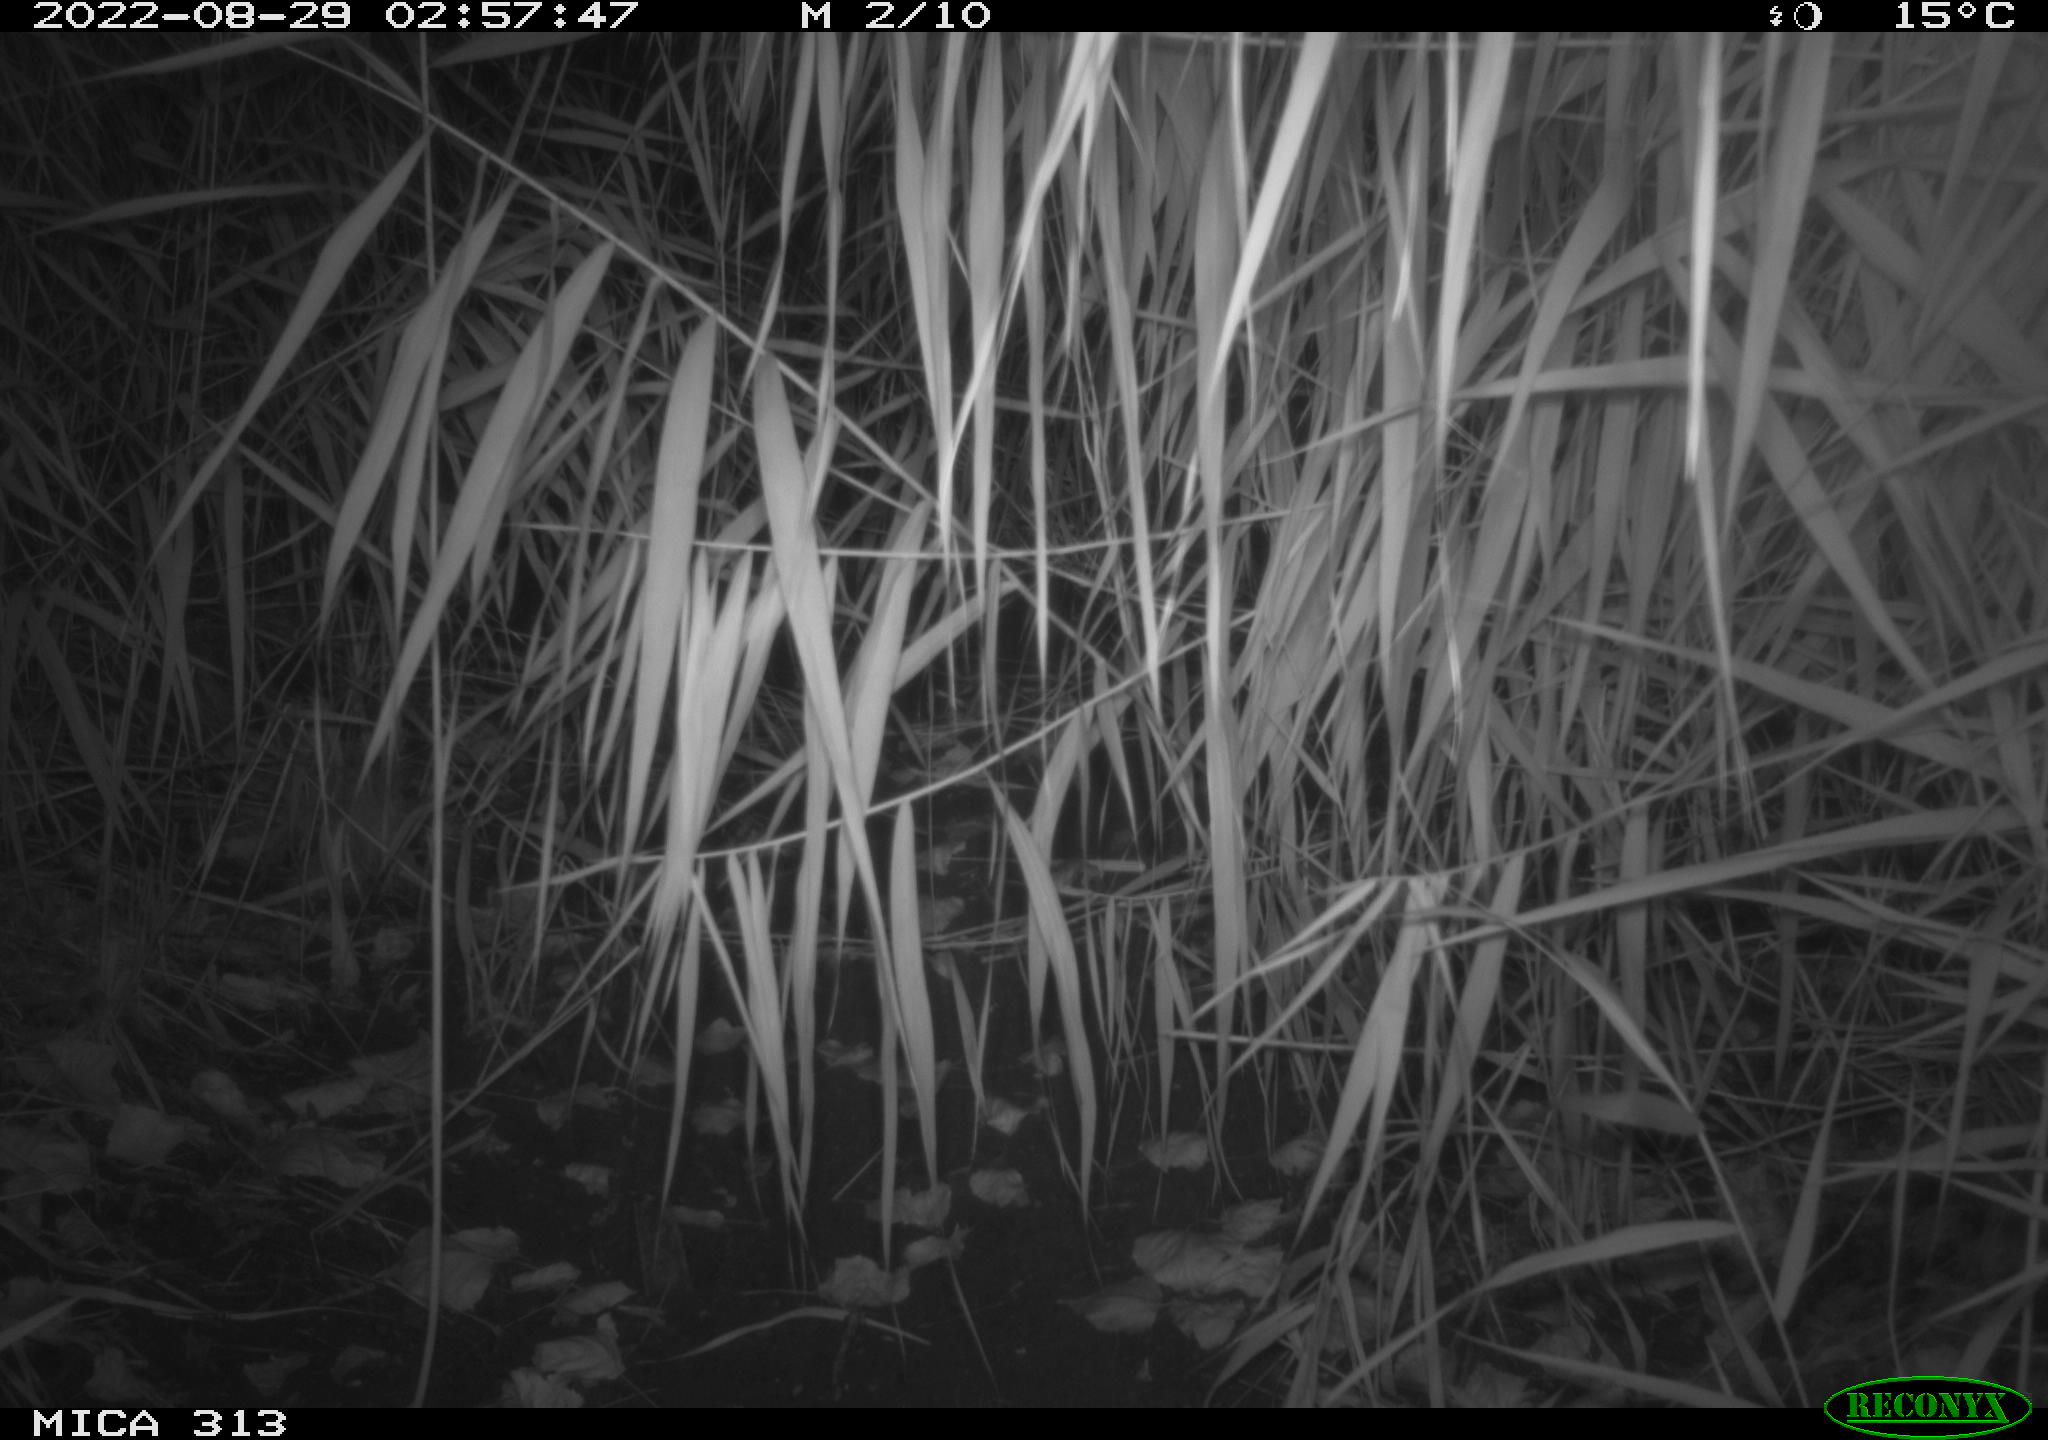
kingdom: Animalia
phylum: Chordata
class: Mammalia
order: Rodentia
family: Muridae
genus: Rattus
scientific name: Rattus norvegicus
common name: Brown rat
